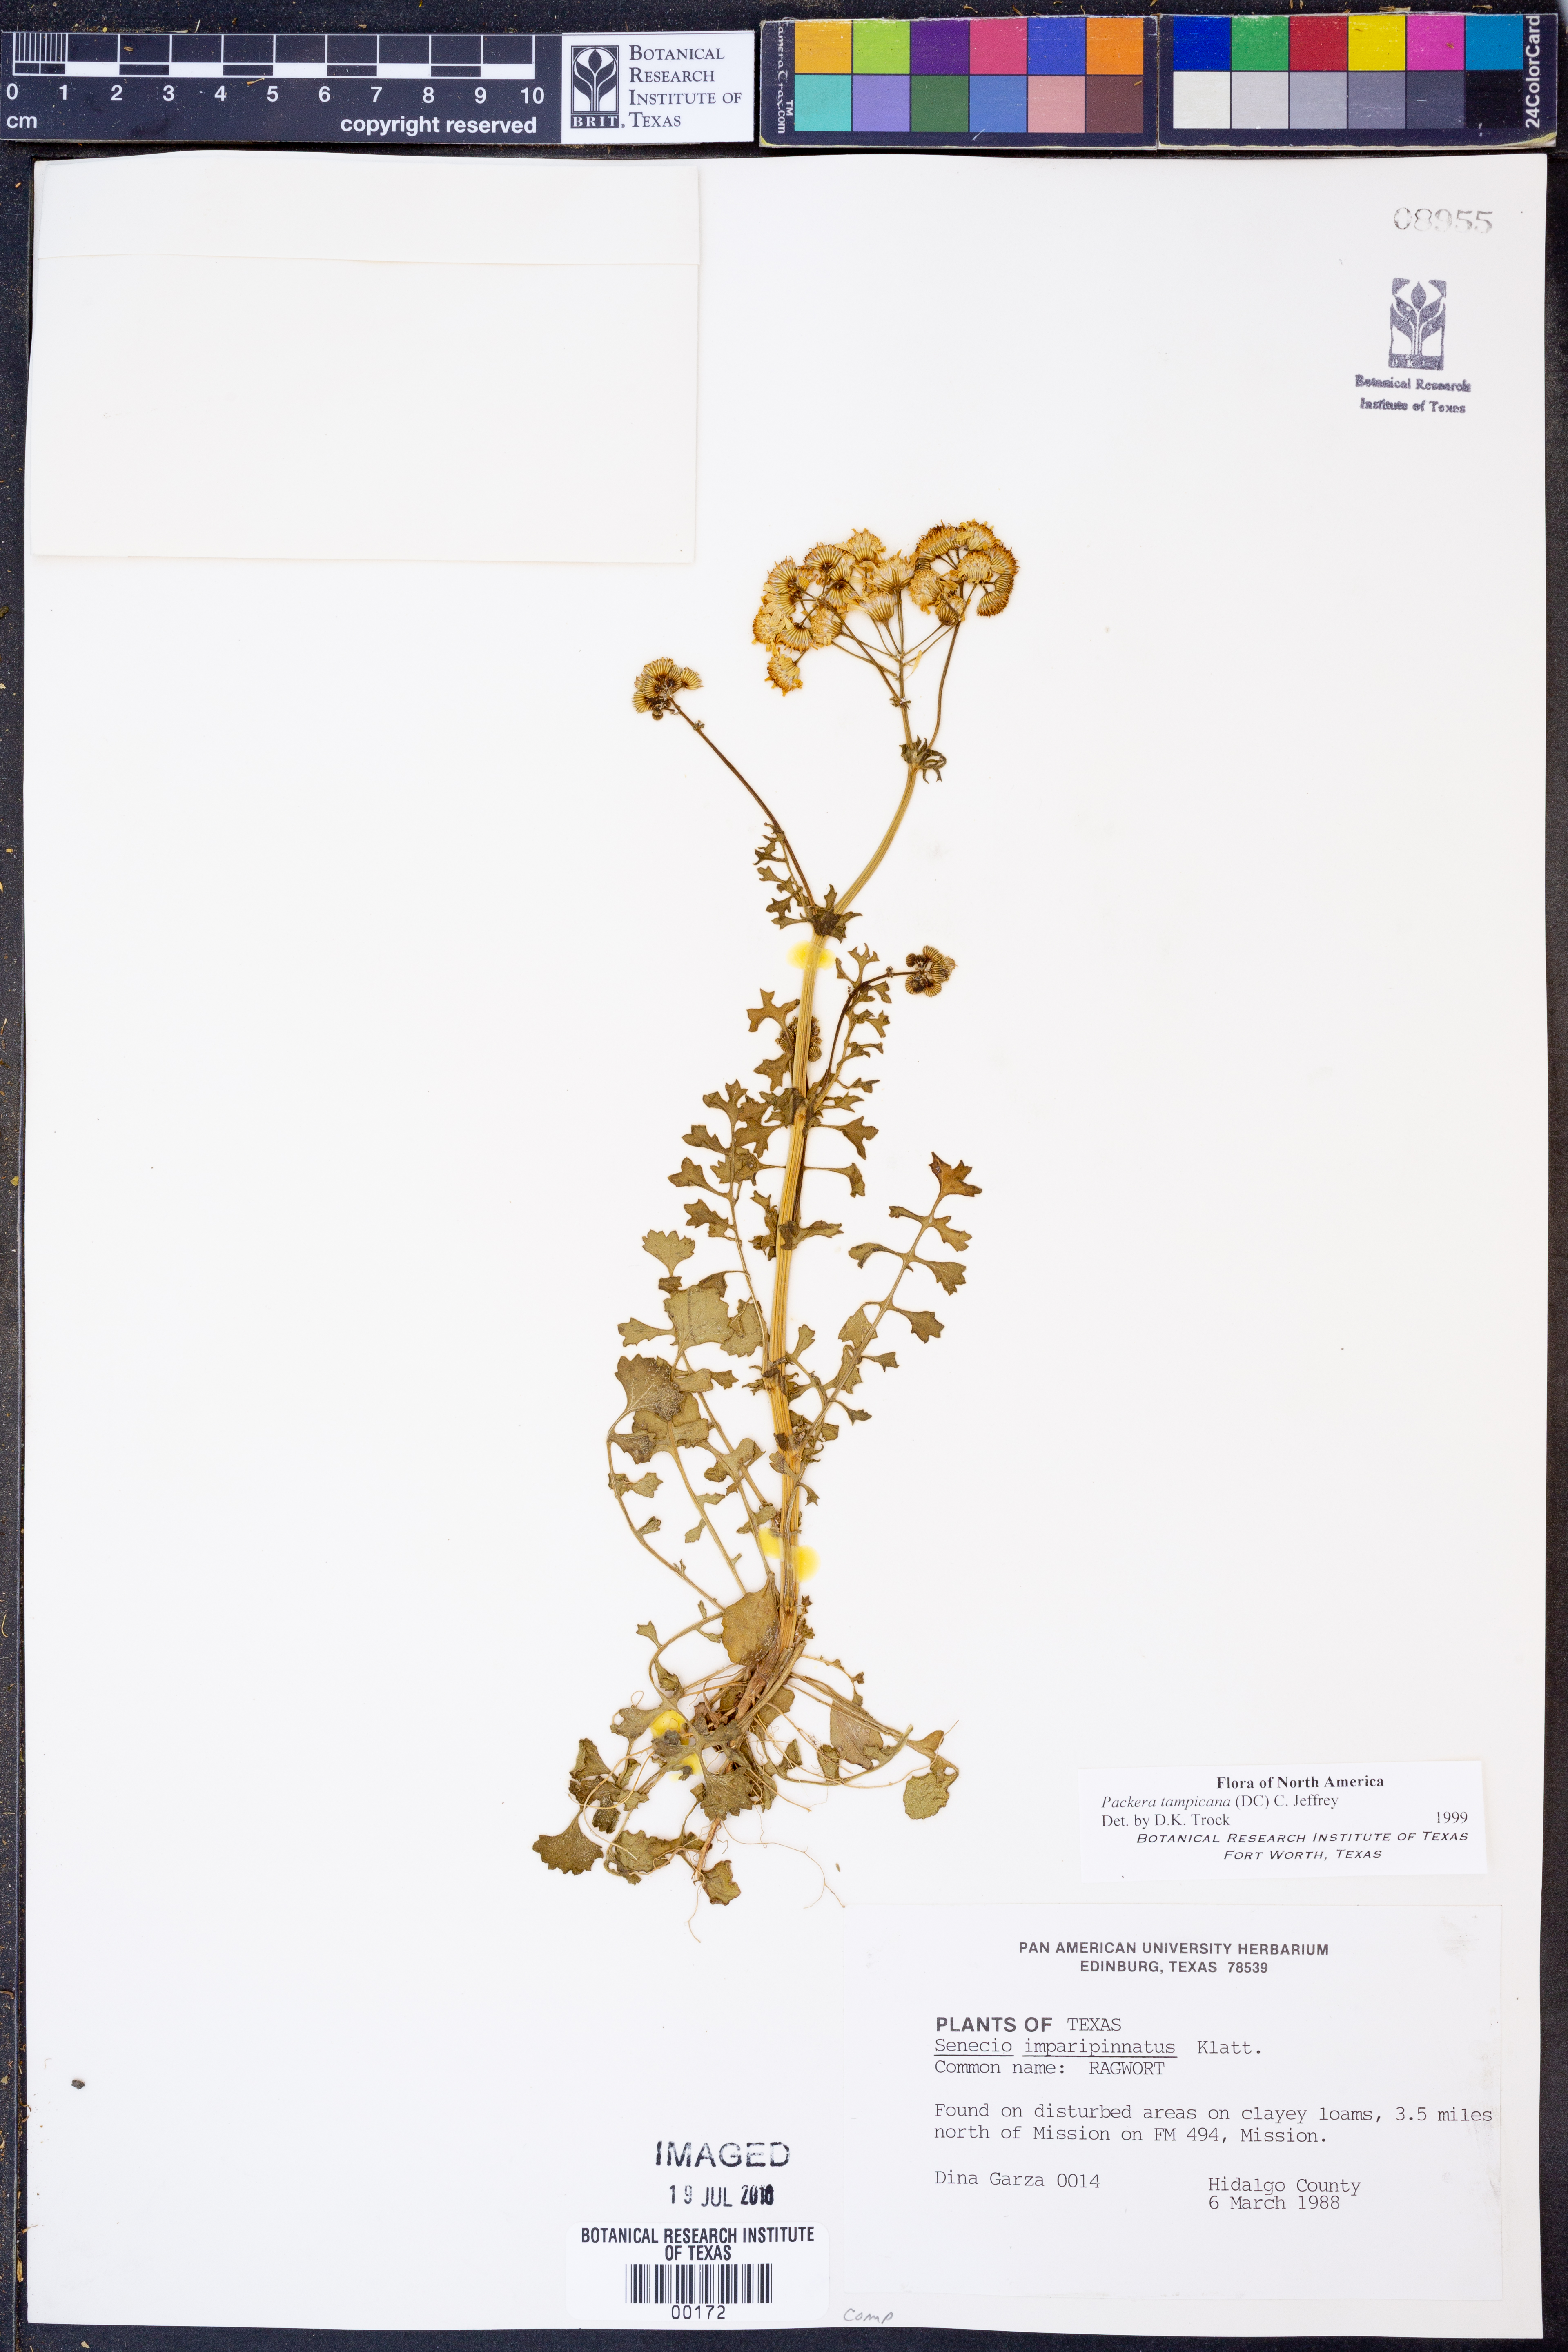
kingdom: Plantae
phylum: Tracheophyta
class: Magnoliopsida
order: Asterales
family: Asteraceae
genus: Packera
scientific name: Packera tampicana
